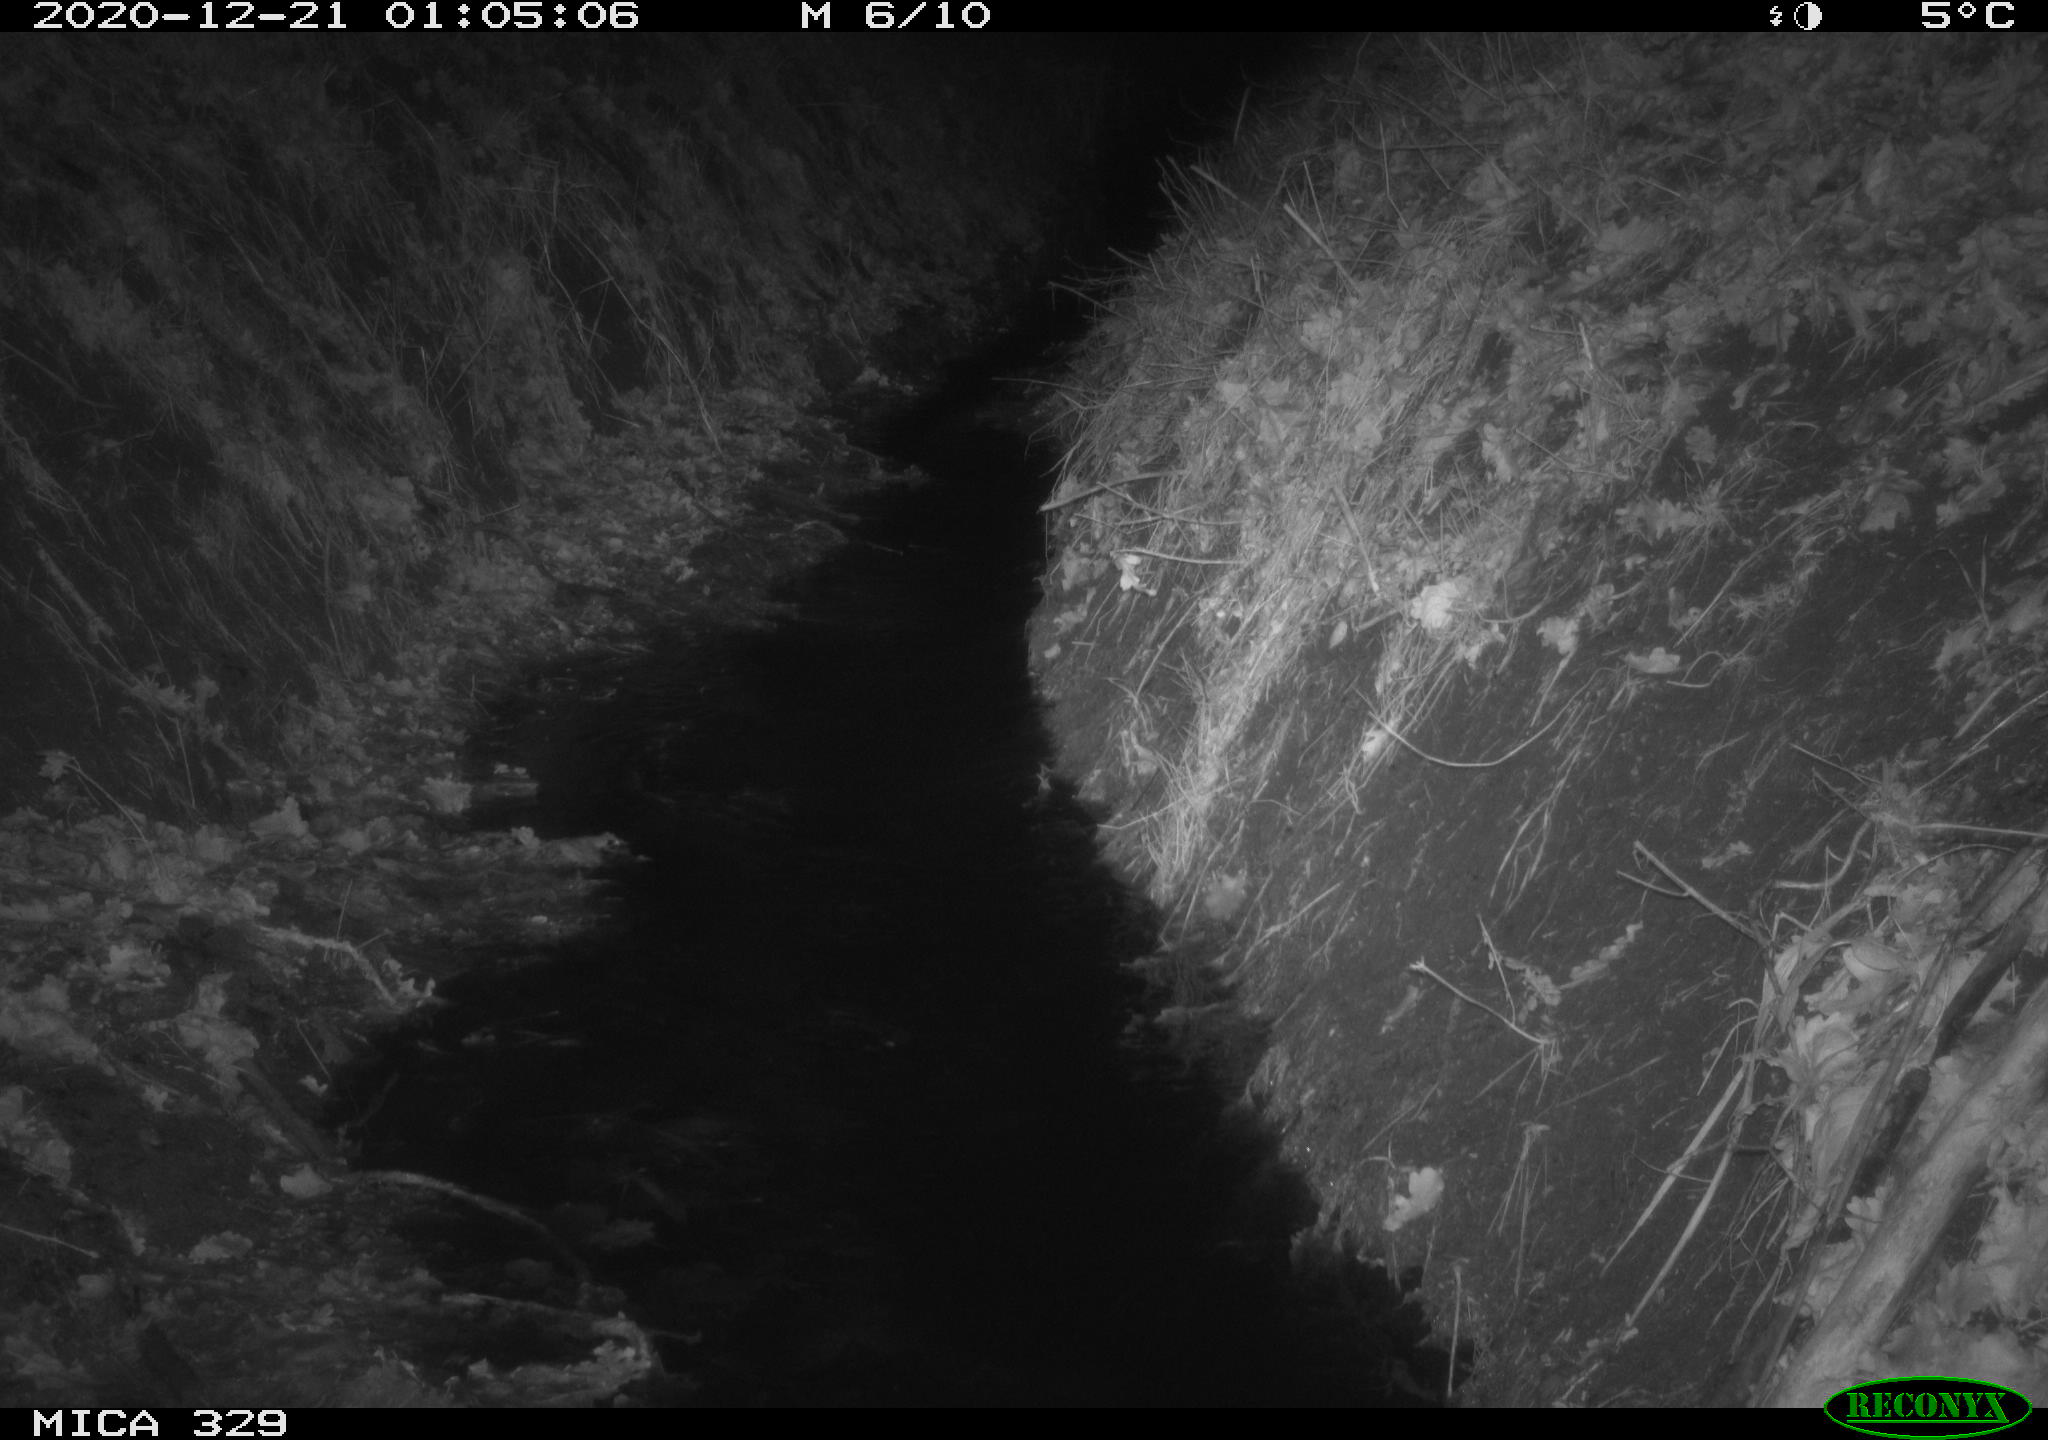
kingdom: Animalia
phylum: Chordata
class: Mammalia
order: Rodentia
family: Muridae
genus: Rattus
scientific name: Rattus norvegicus
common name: Brown rat
